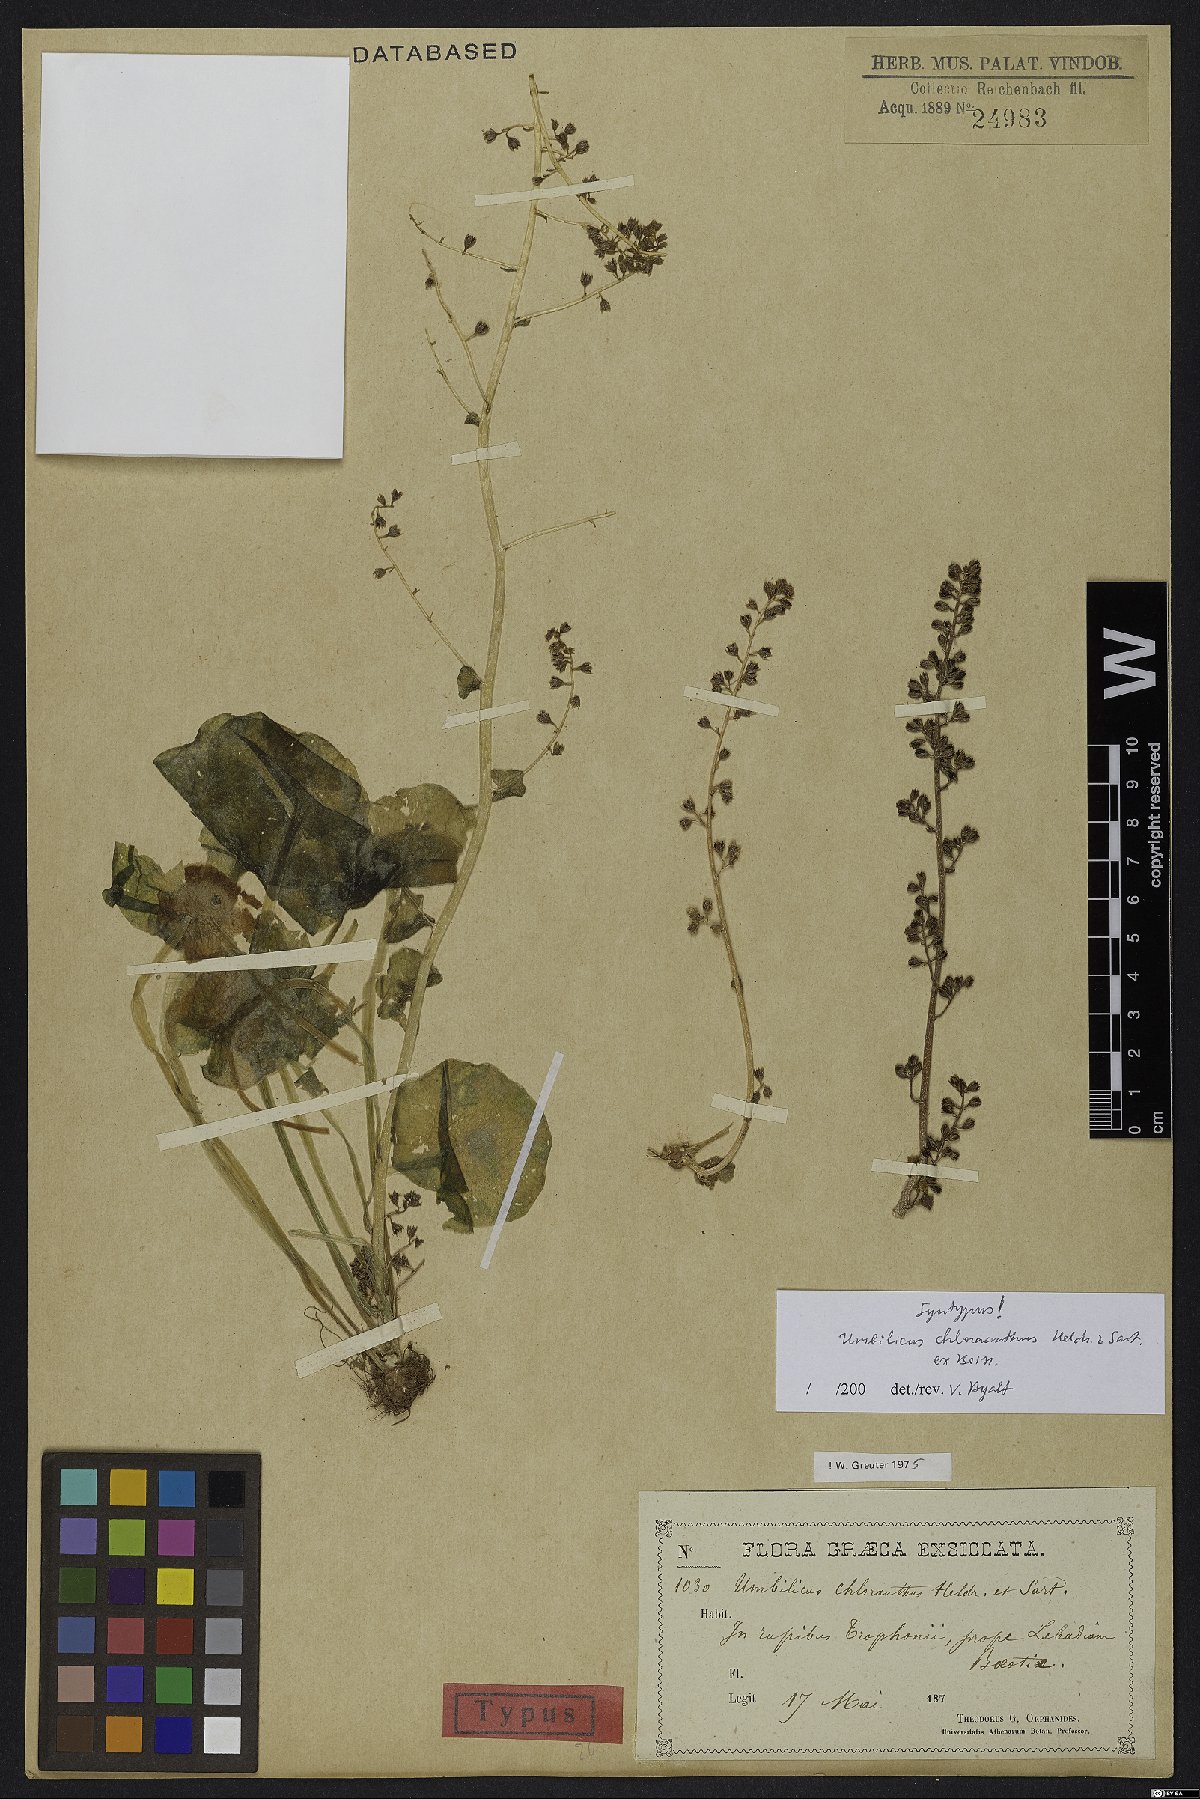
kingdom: Plantae
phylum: Tracheophyta
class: Magnoliopsida
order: Saxifragales
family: Crassulaceae
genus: Umbilicus
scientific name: Umbilicus chloranthus
